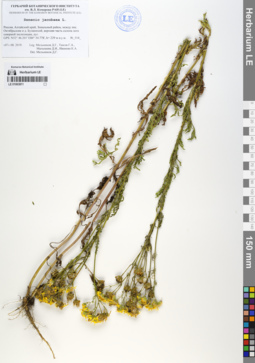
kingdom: Plantae
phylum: Tracheophyta
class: Magnoliopsida
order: Asterales
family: Asteraceae
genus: Jacobaea
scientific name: Jacobaea vulgaris
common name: Stinking willie
